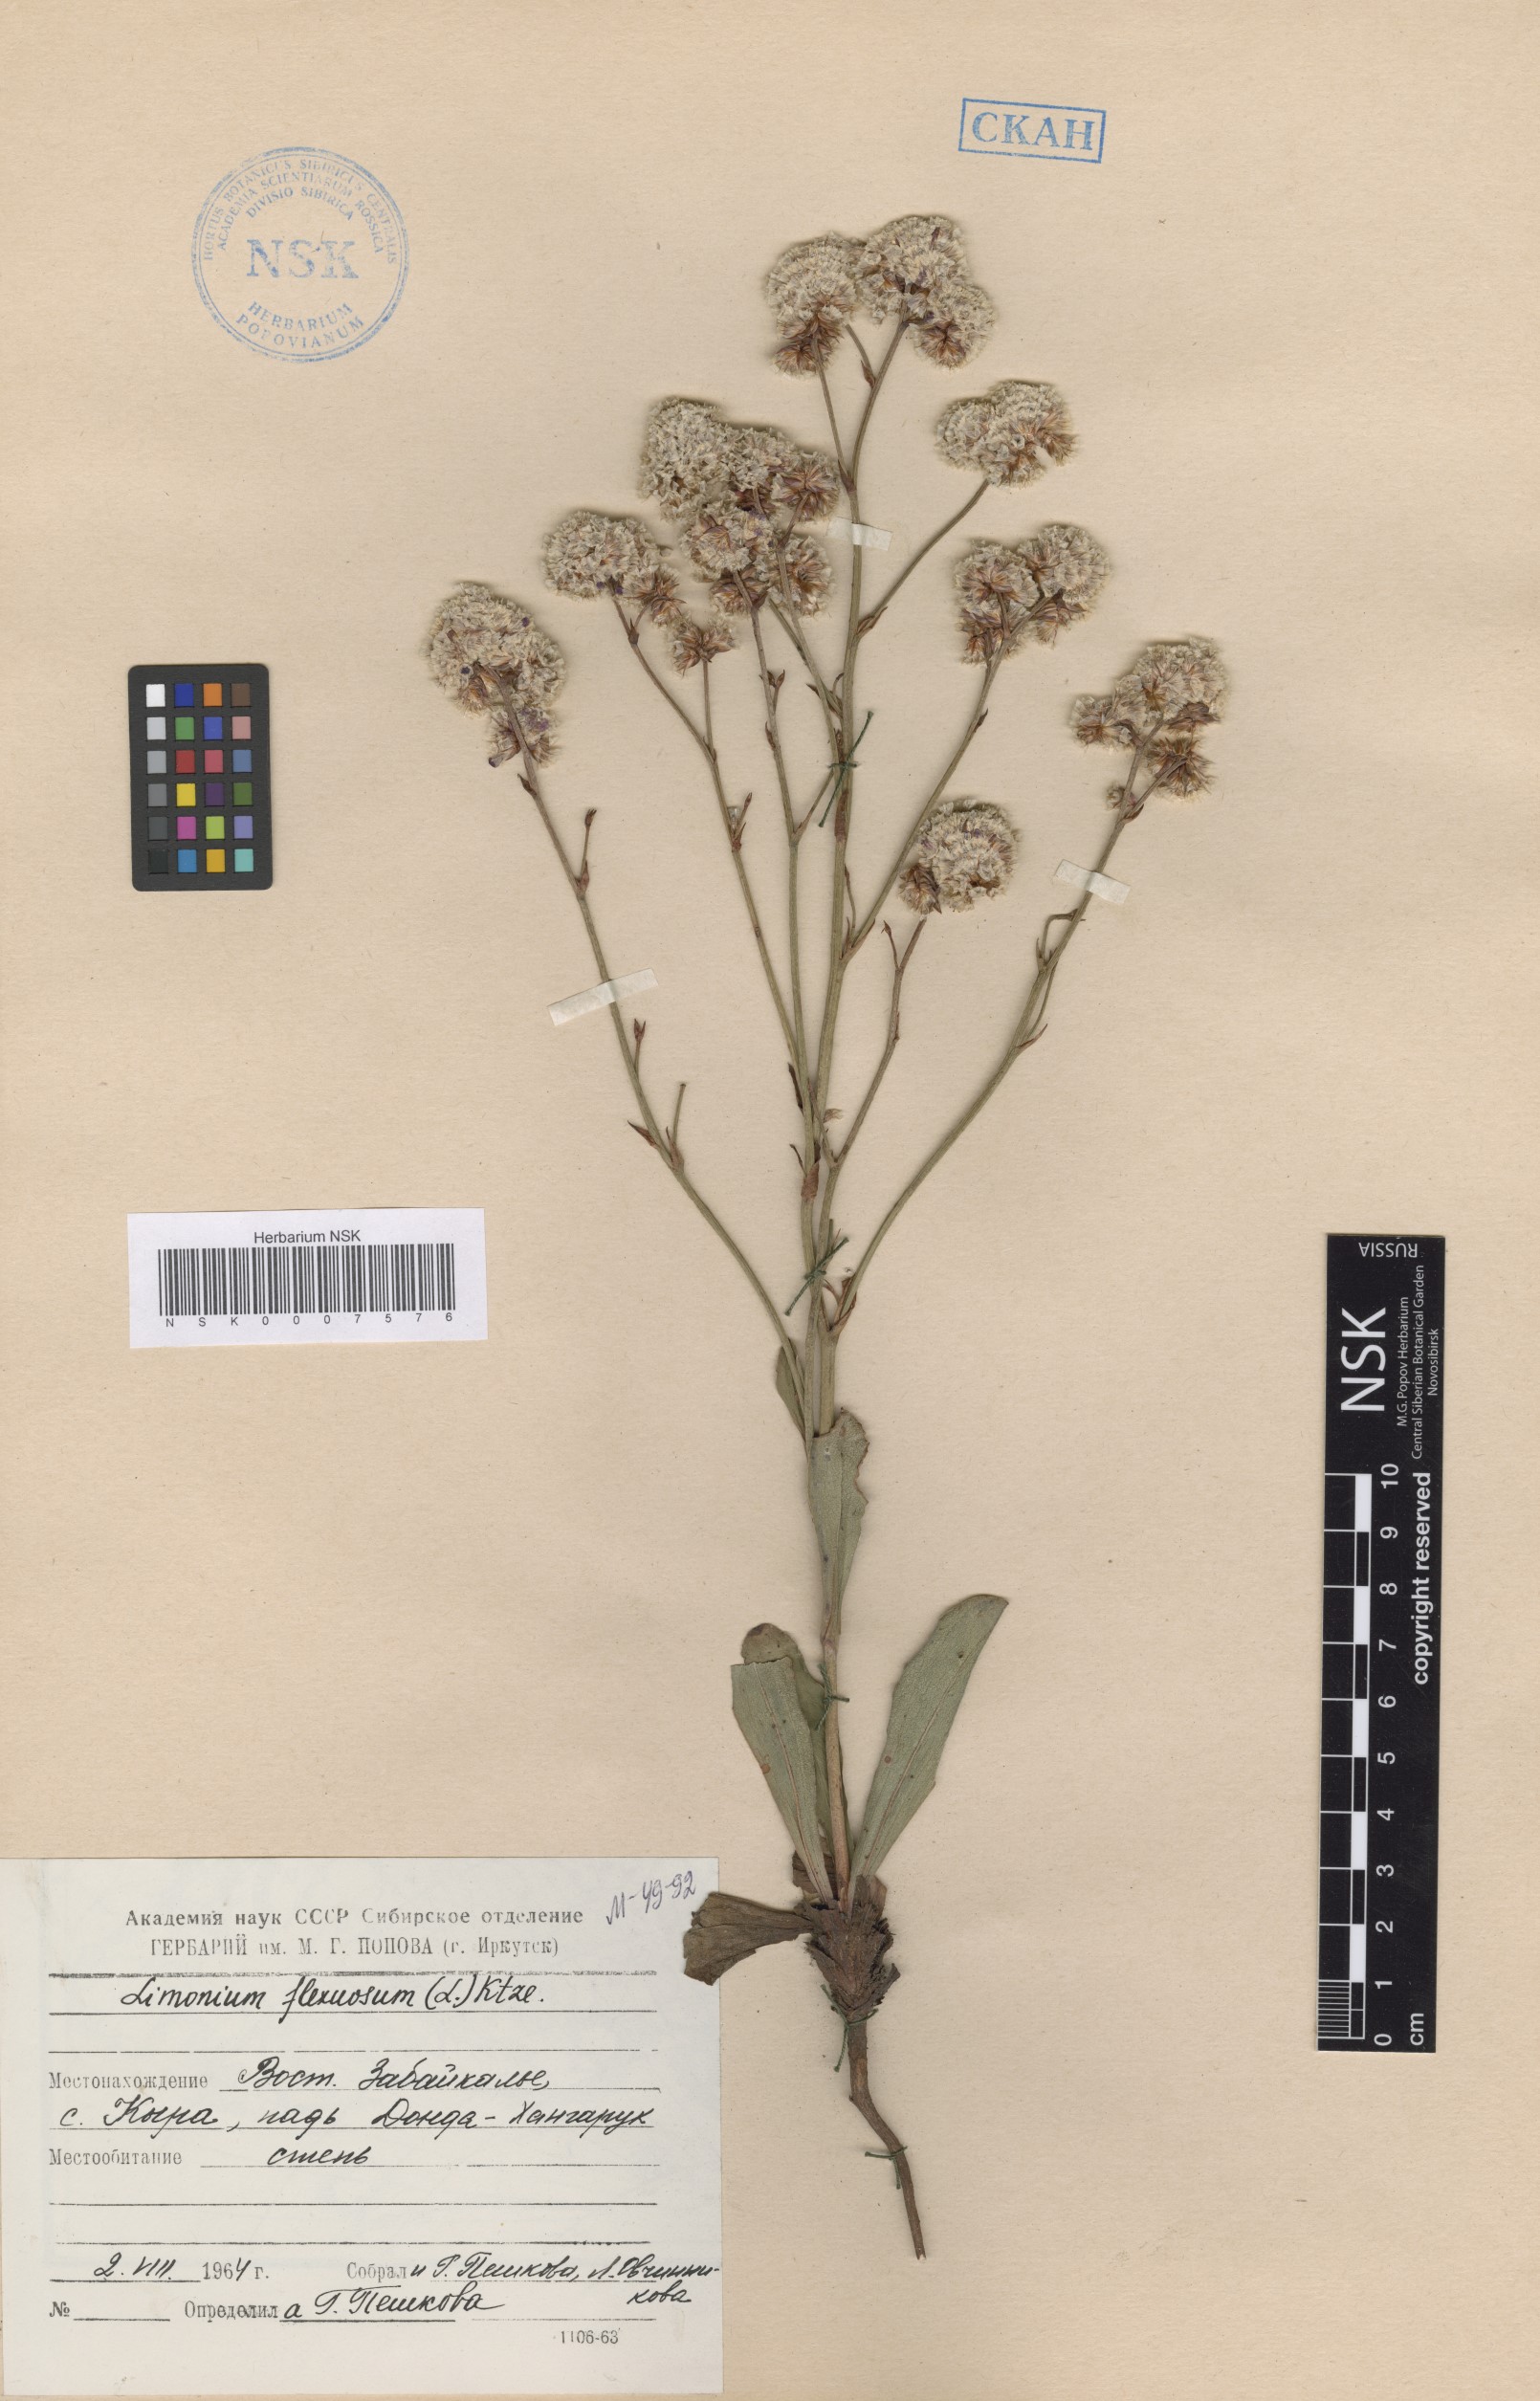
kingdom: Plantae
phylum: Tracheophyta
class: Magnoliopsida
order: Caryophyllales
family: Plumbaginaceae
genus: Limonium
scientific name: Limonium flexuosum
